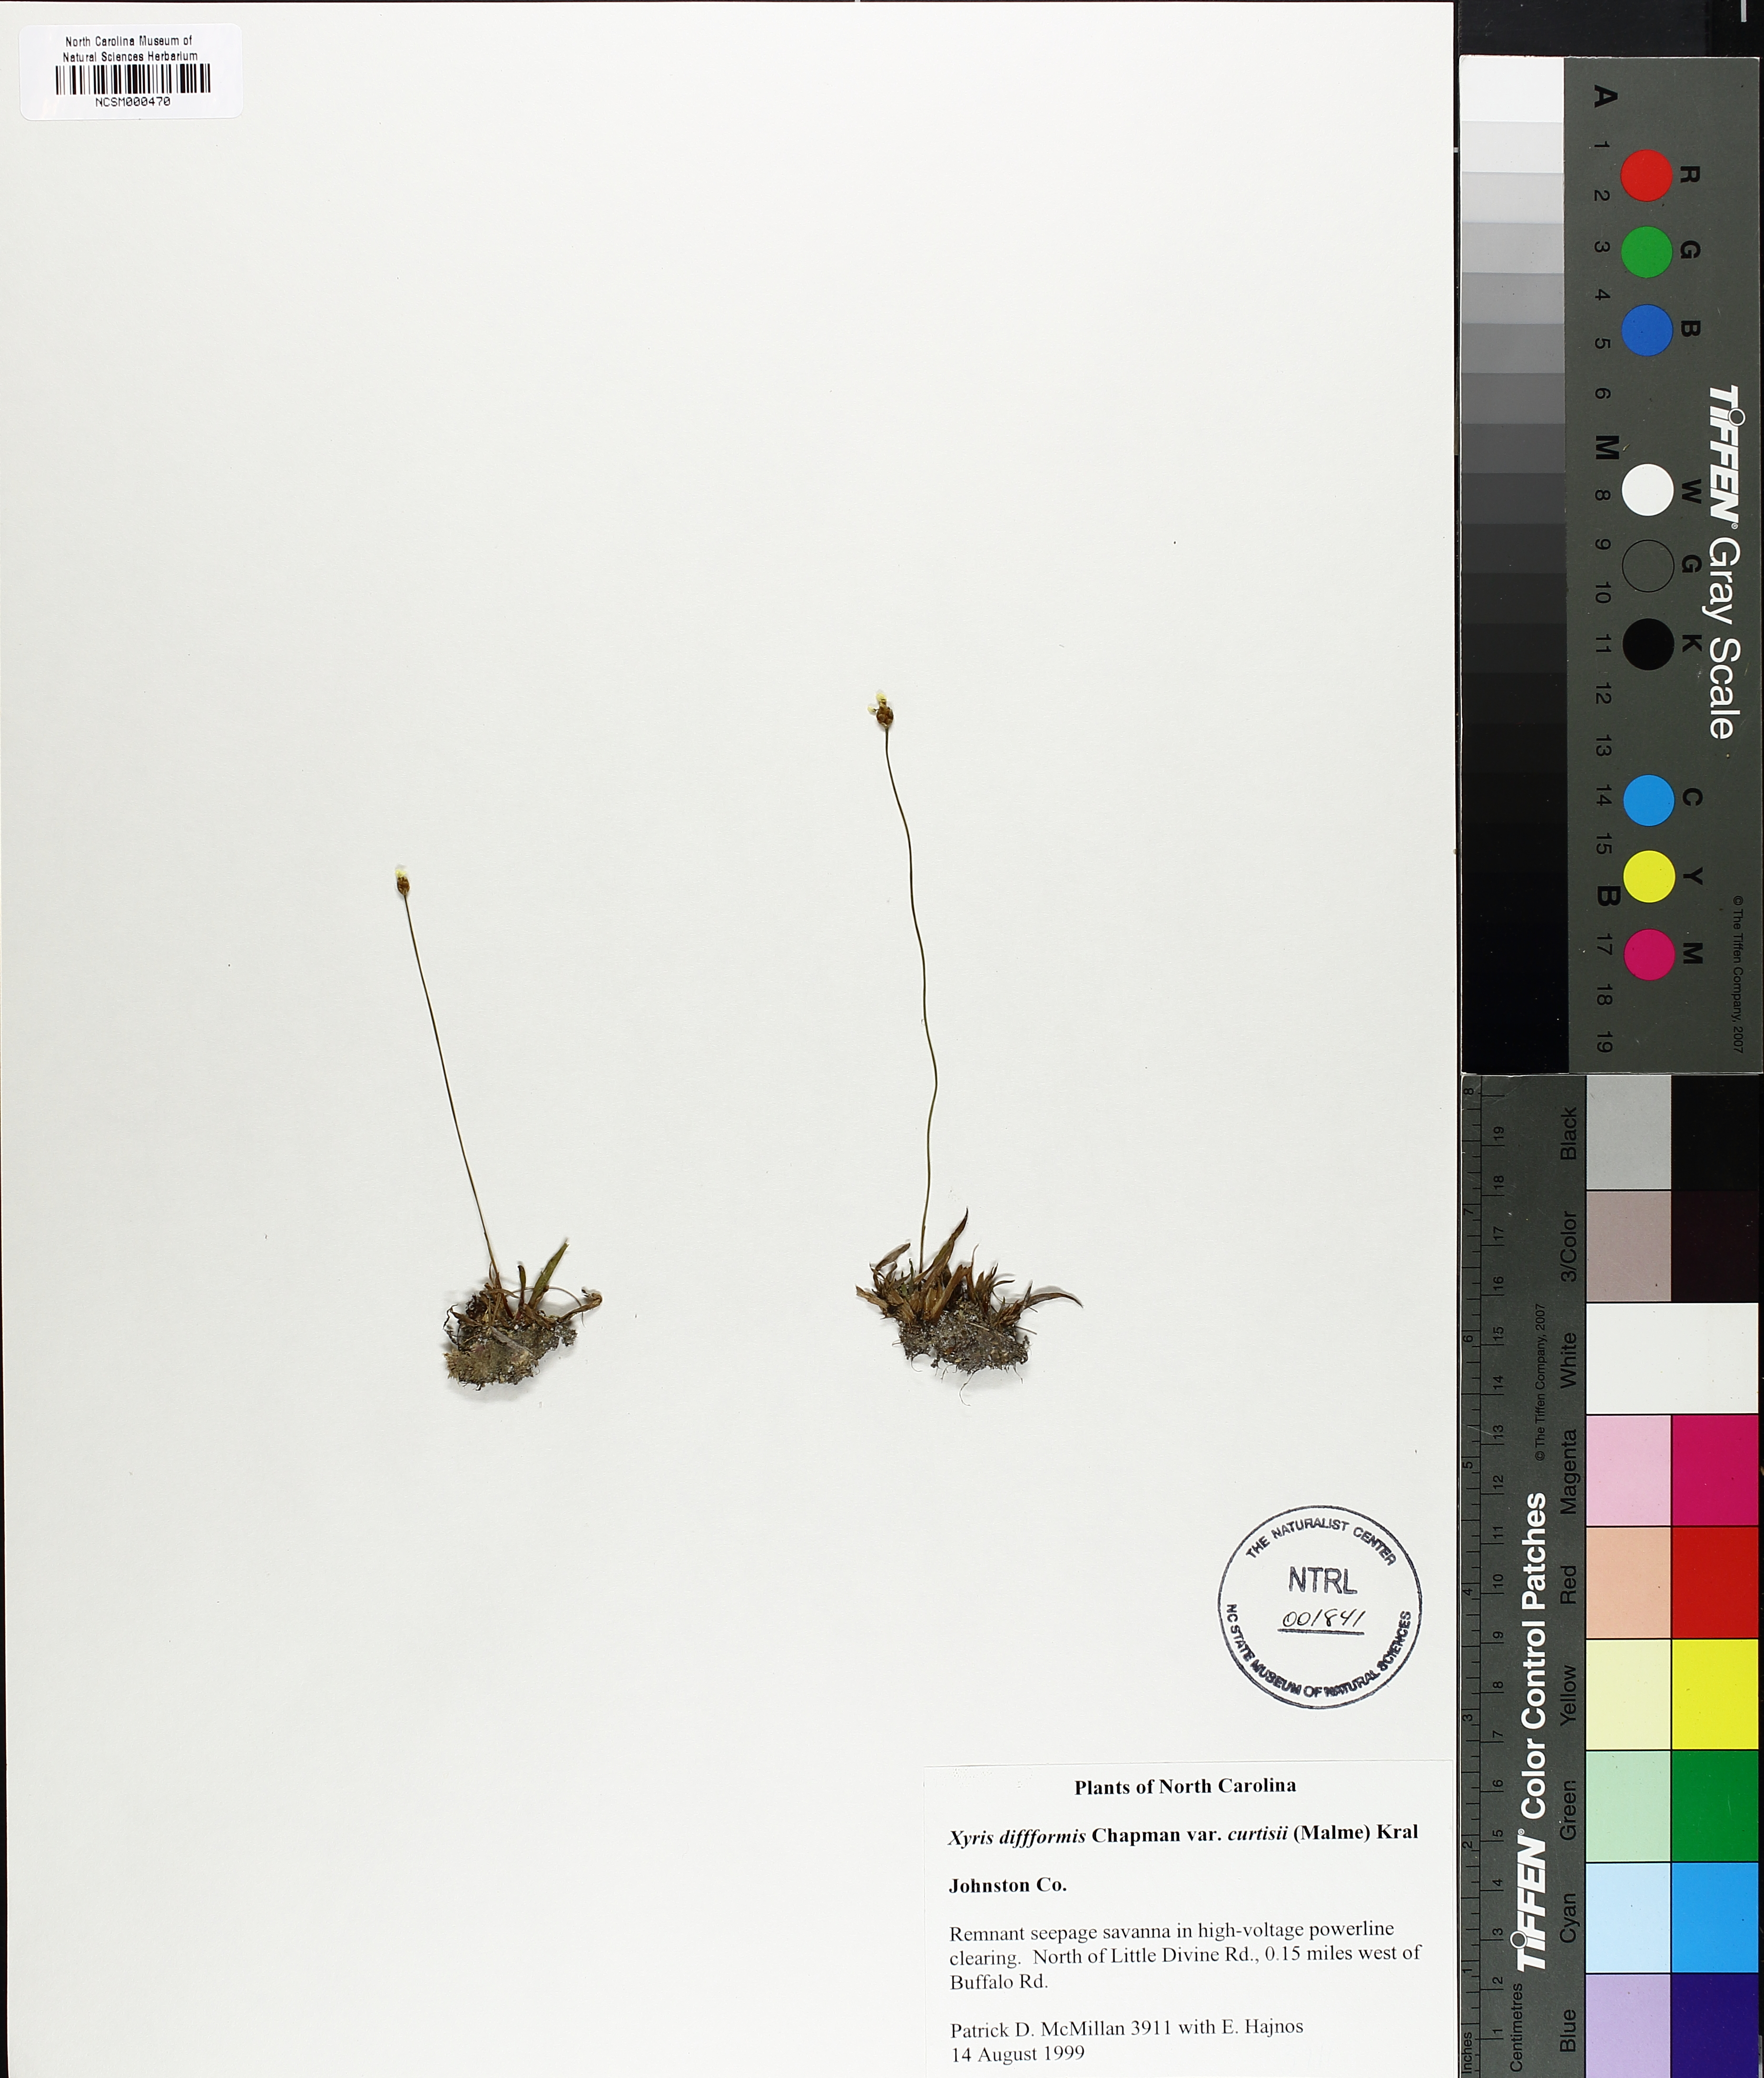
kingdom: Plantae
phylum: Tracheophyta
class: Liliopsida
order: Poales
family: Xyridaceae
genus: Xyris
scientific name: Xyris difformis
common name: Bog yellow-eyed-grass
